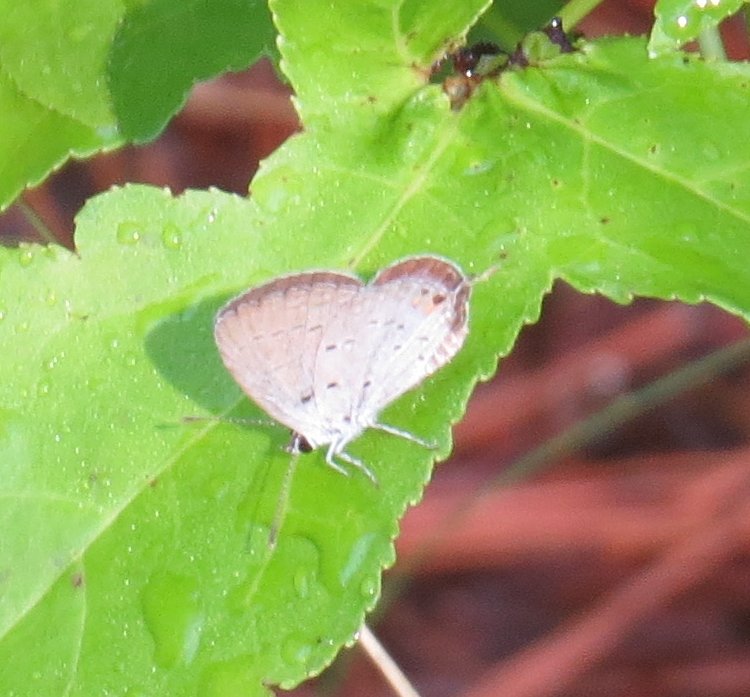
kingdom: Animalia
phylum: Arthropoda
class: Insecta
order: Lepidoptera
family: Lycaenidae
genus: Elkalyce
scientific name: Elkalyce comyntas
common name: Eastern Tailed-Blue
